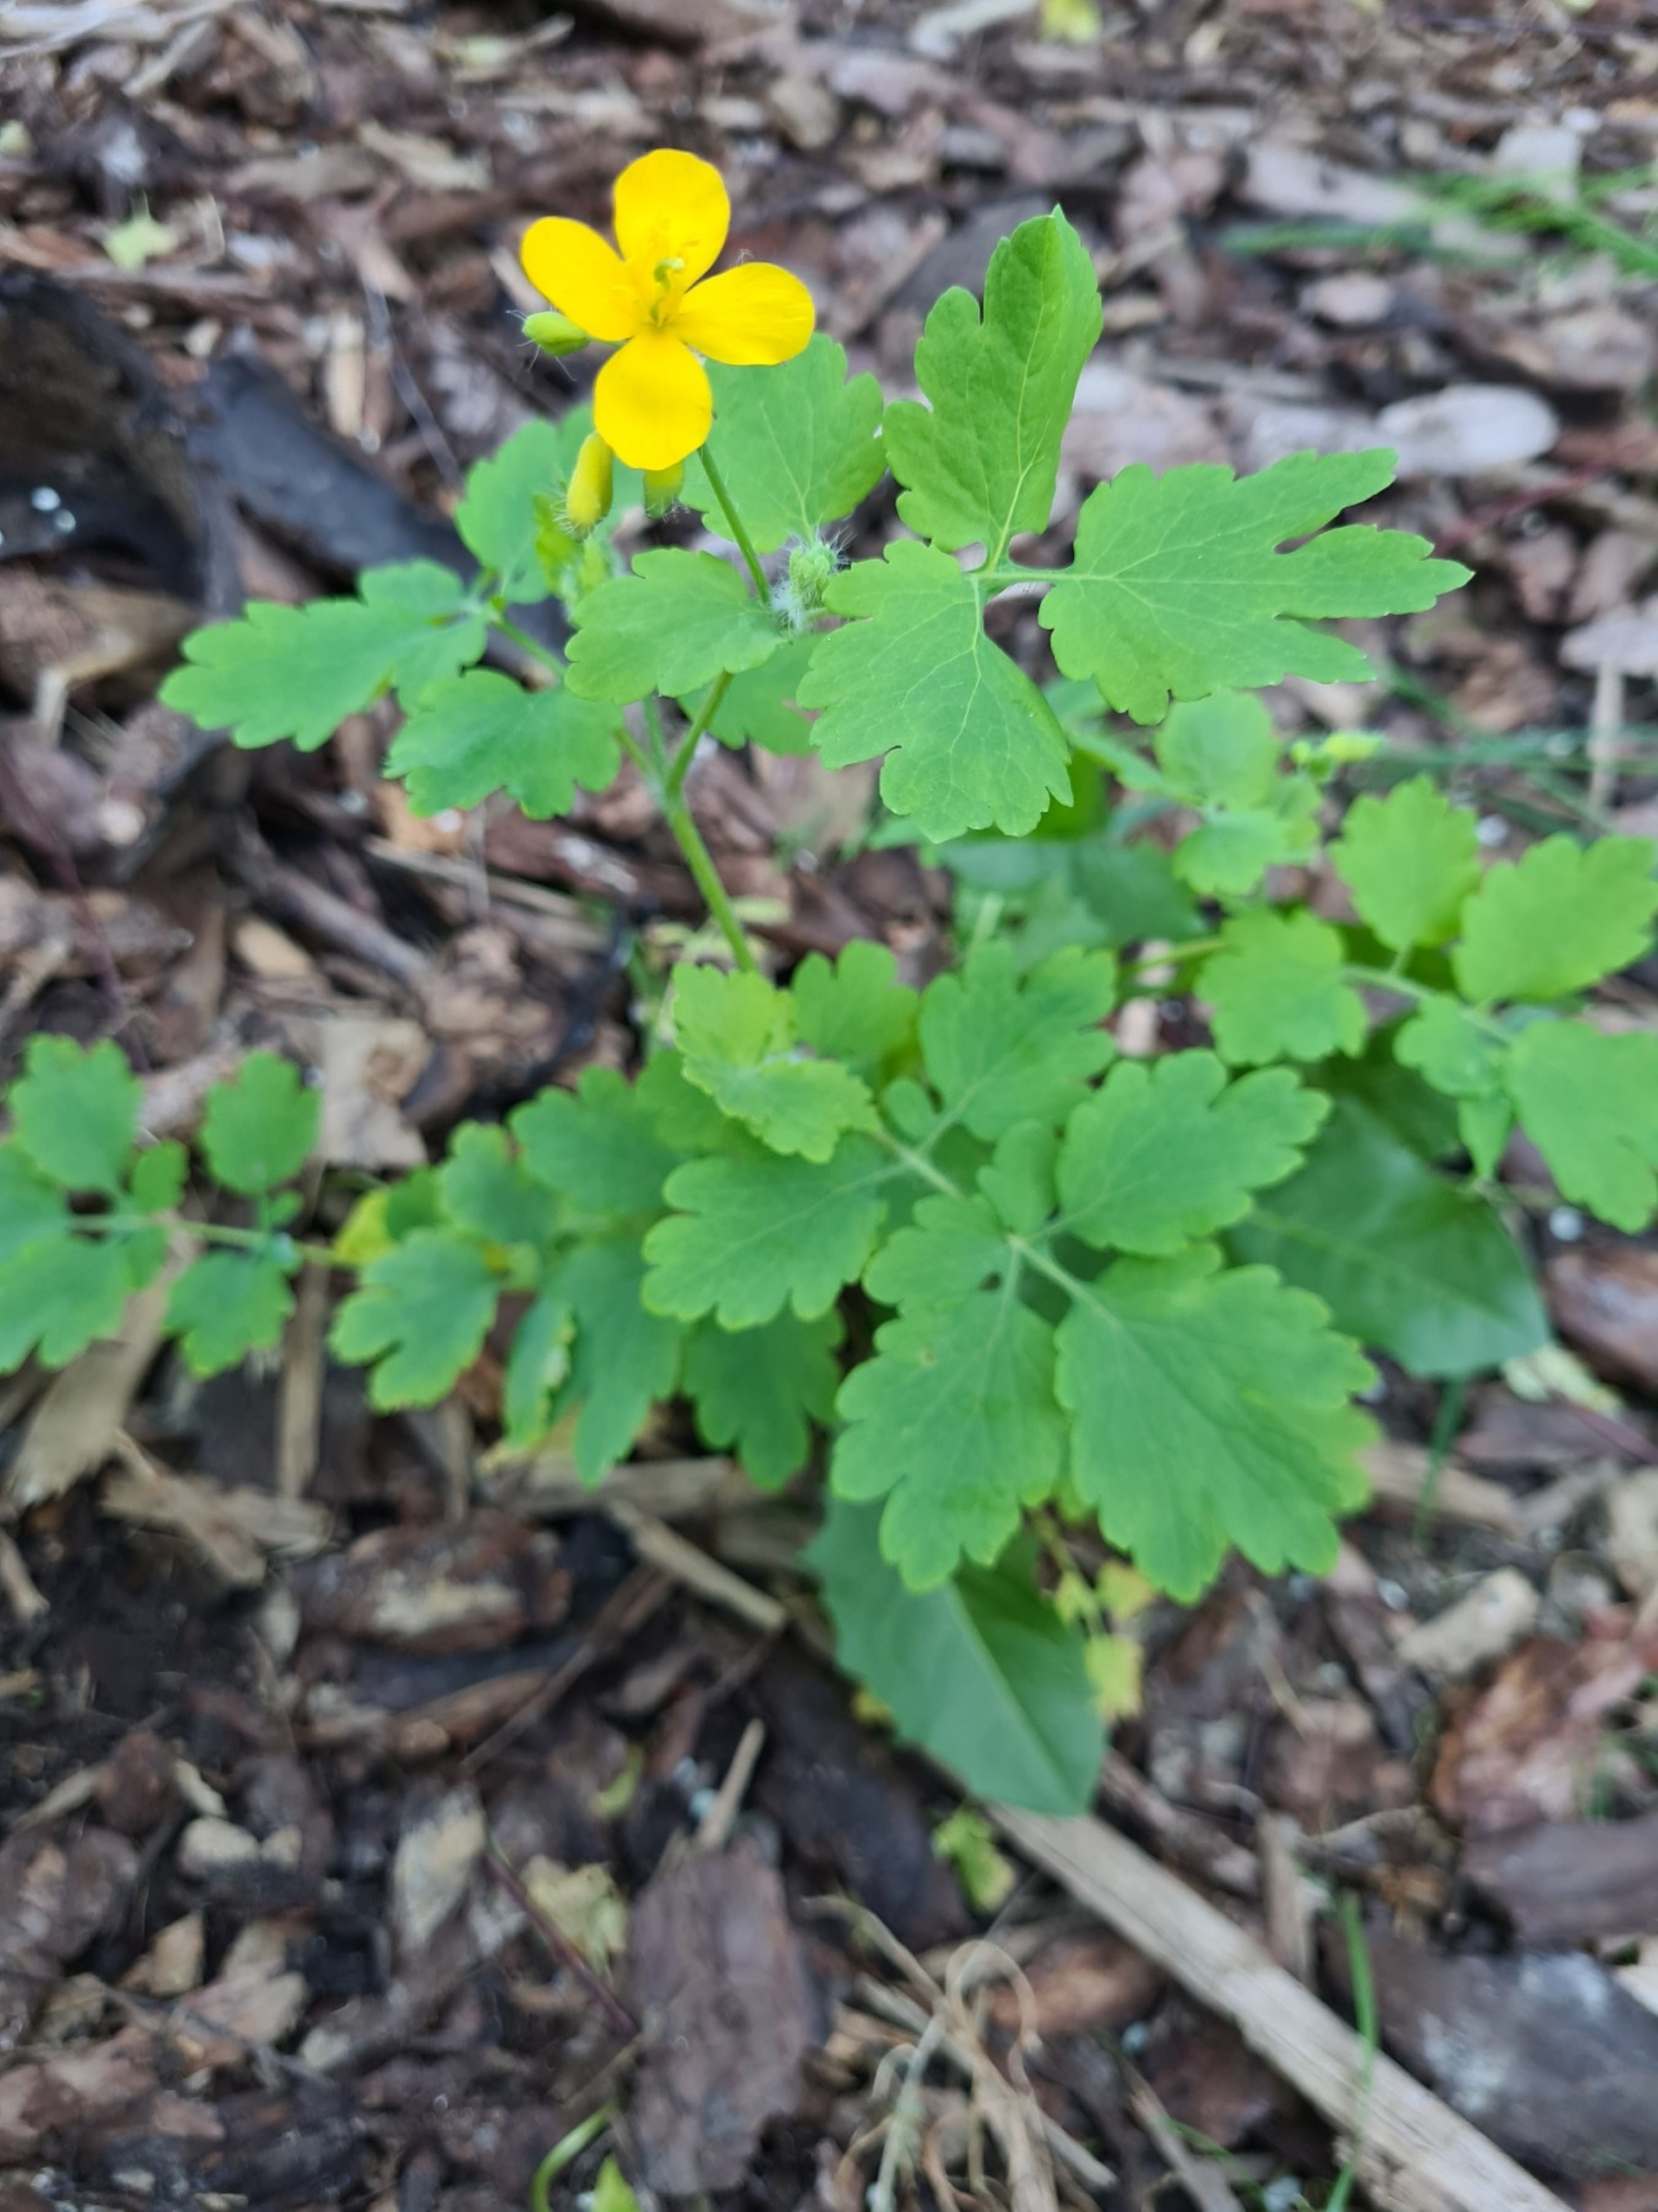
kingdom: Plantae
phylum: Tracheophyta
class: Magnoliopsida
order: Ranunculales
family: Papaveraceae
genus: Chelidonium
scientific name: Chelidonium majus
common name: Svaleurt
